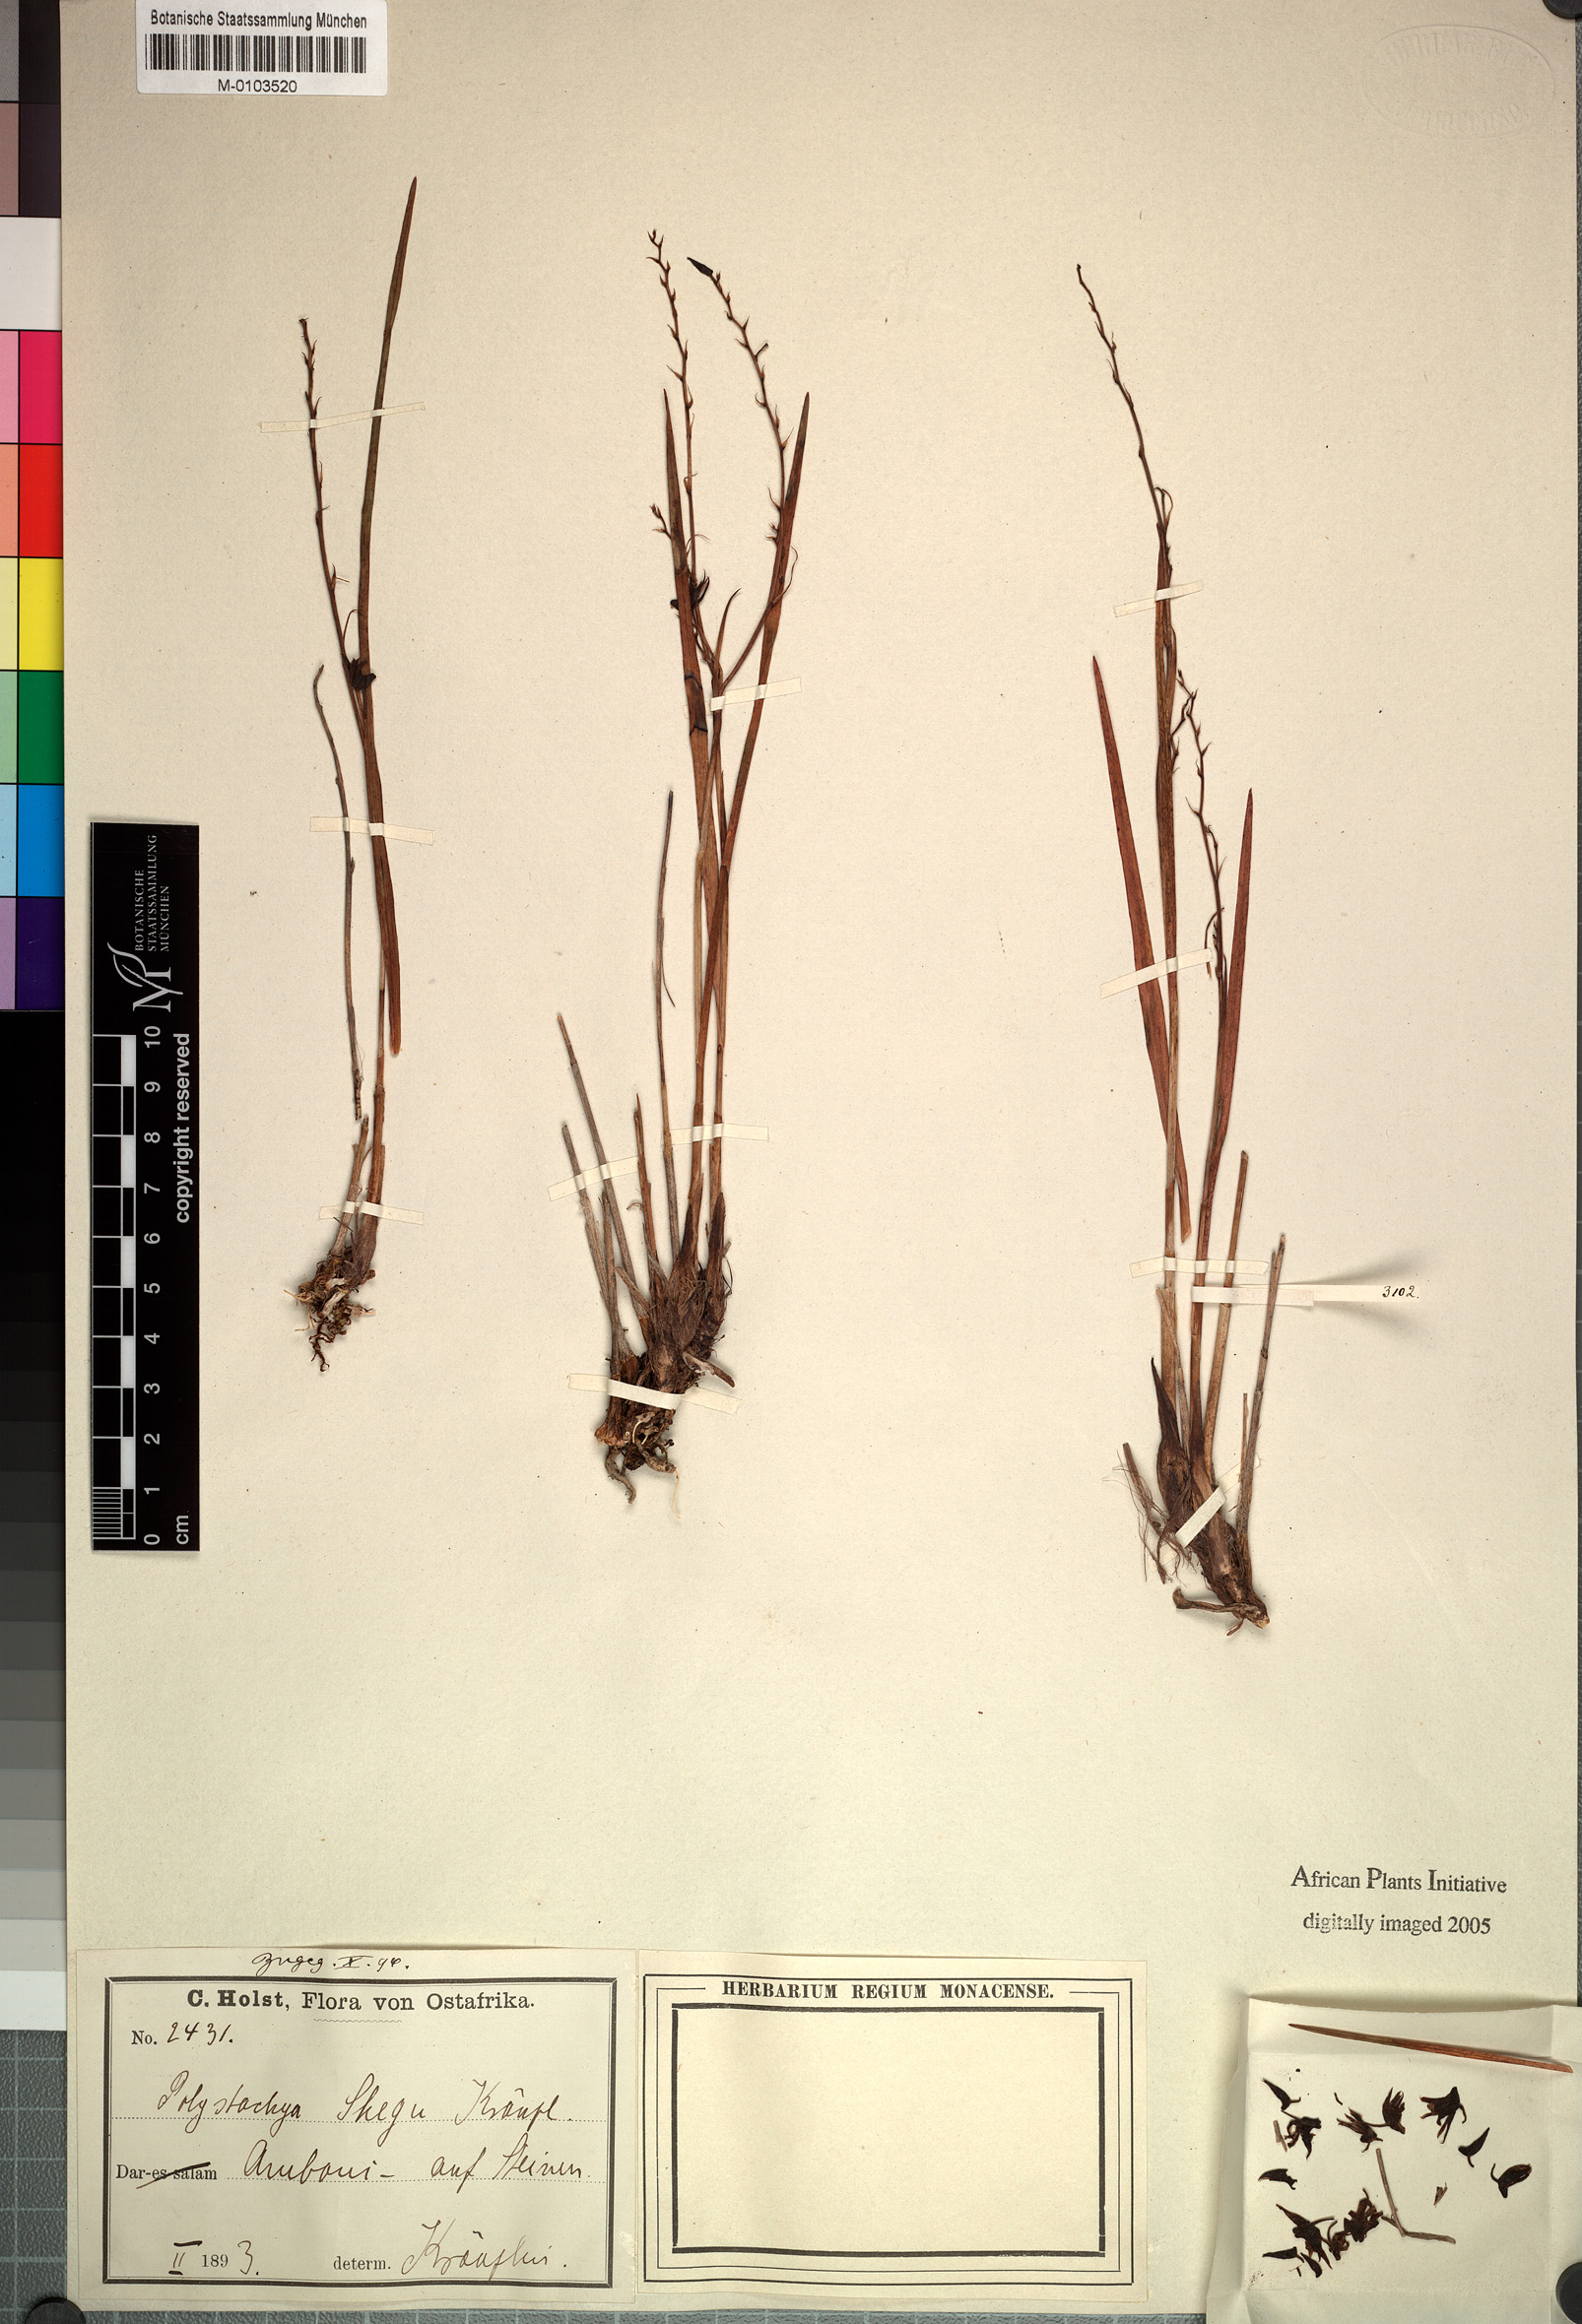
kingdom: Plantae
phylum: Tracheophyta
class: Liliopsida
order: Asparagales
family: Orchidaceae
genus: Polystachya
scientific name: Polystachya shega
